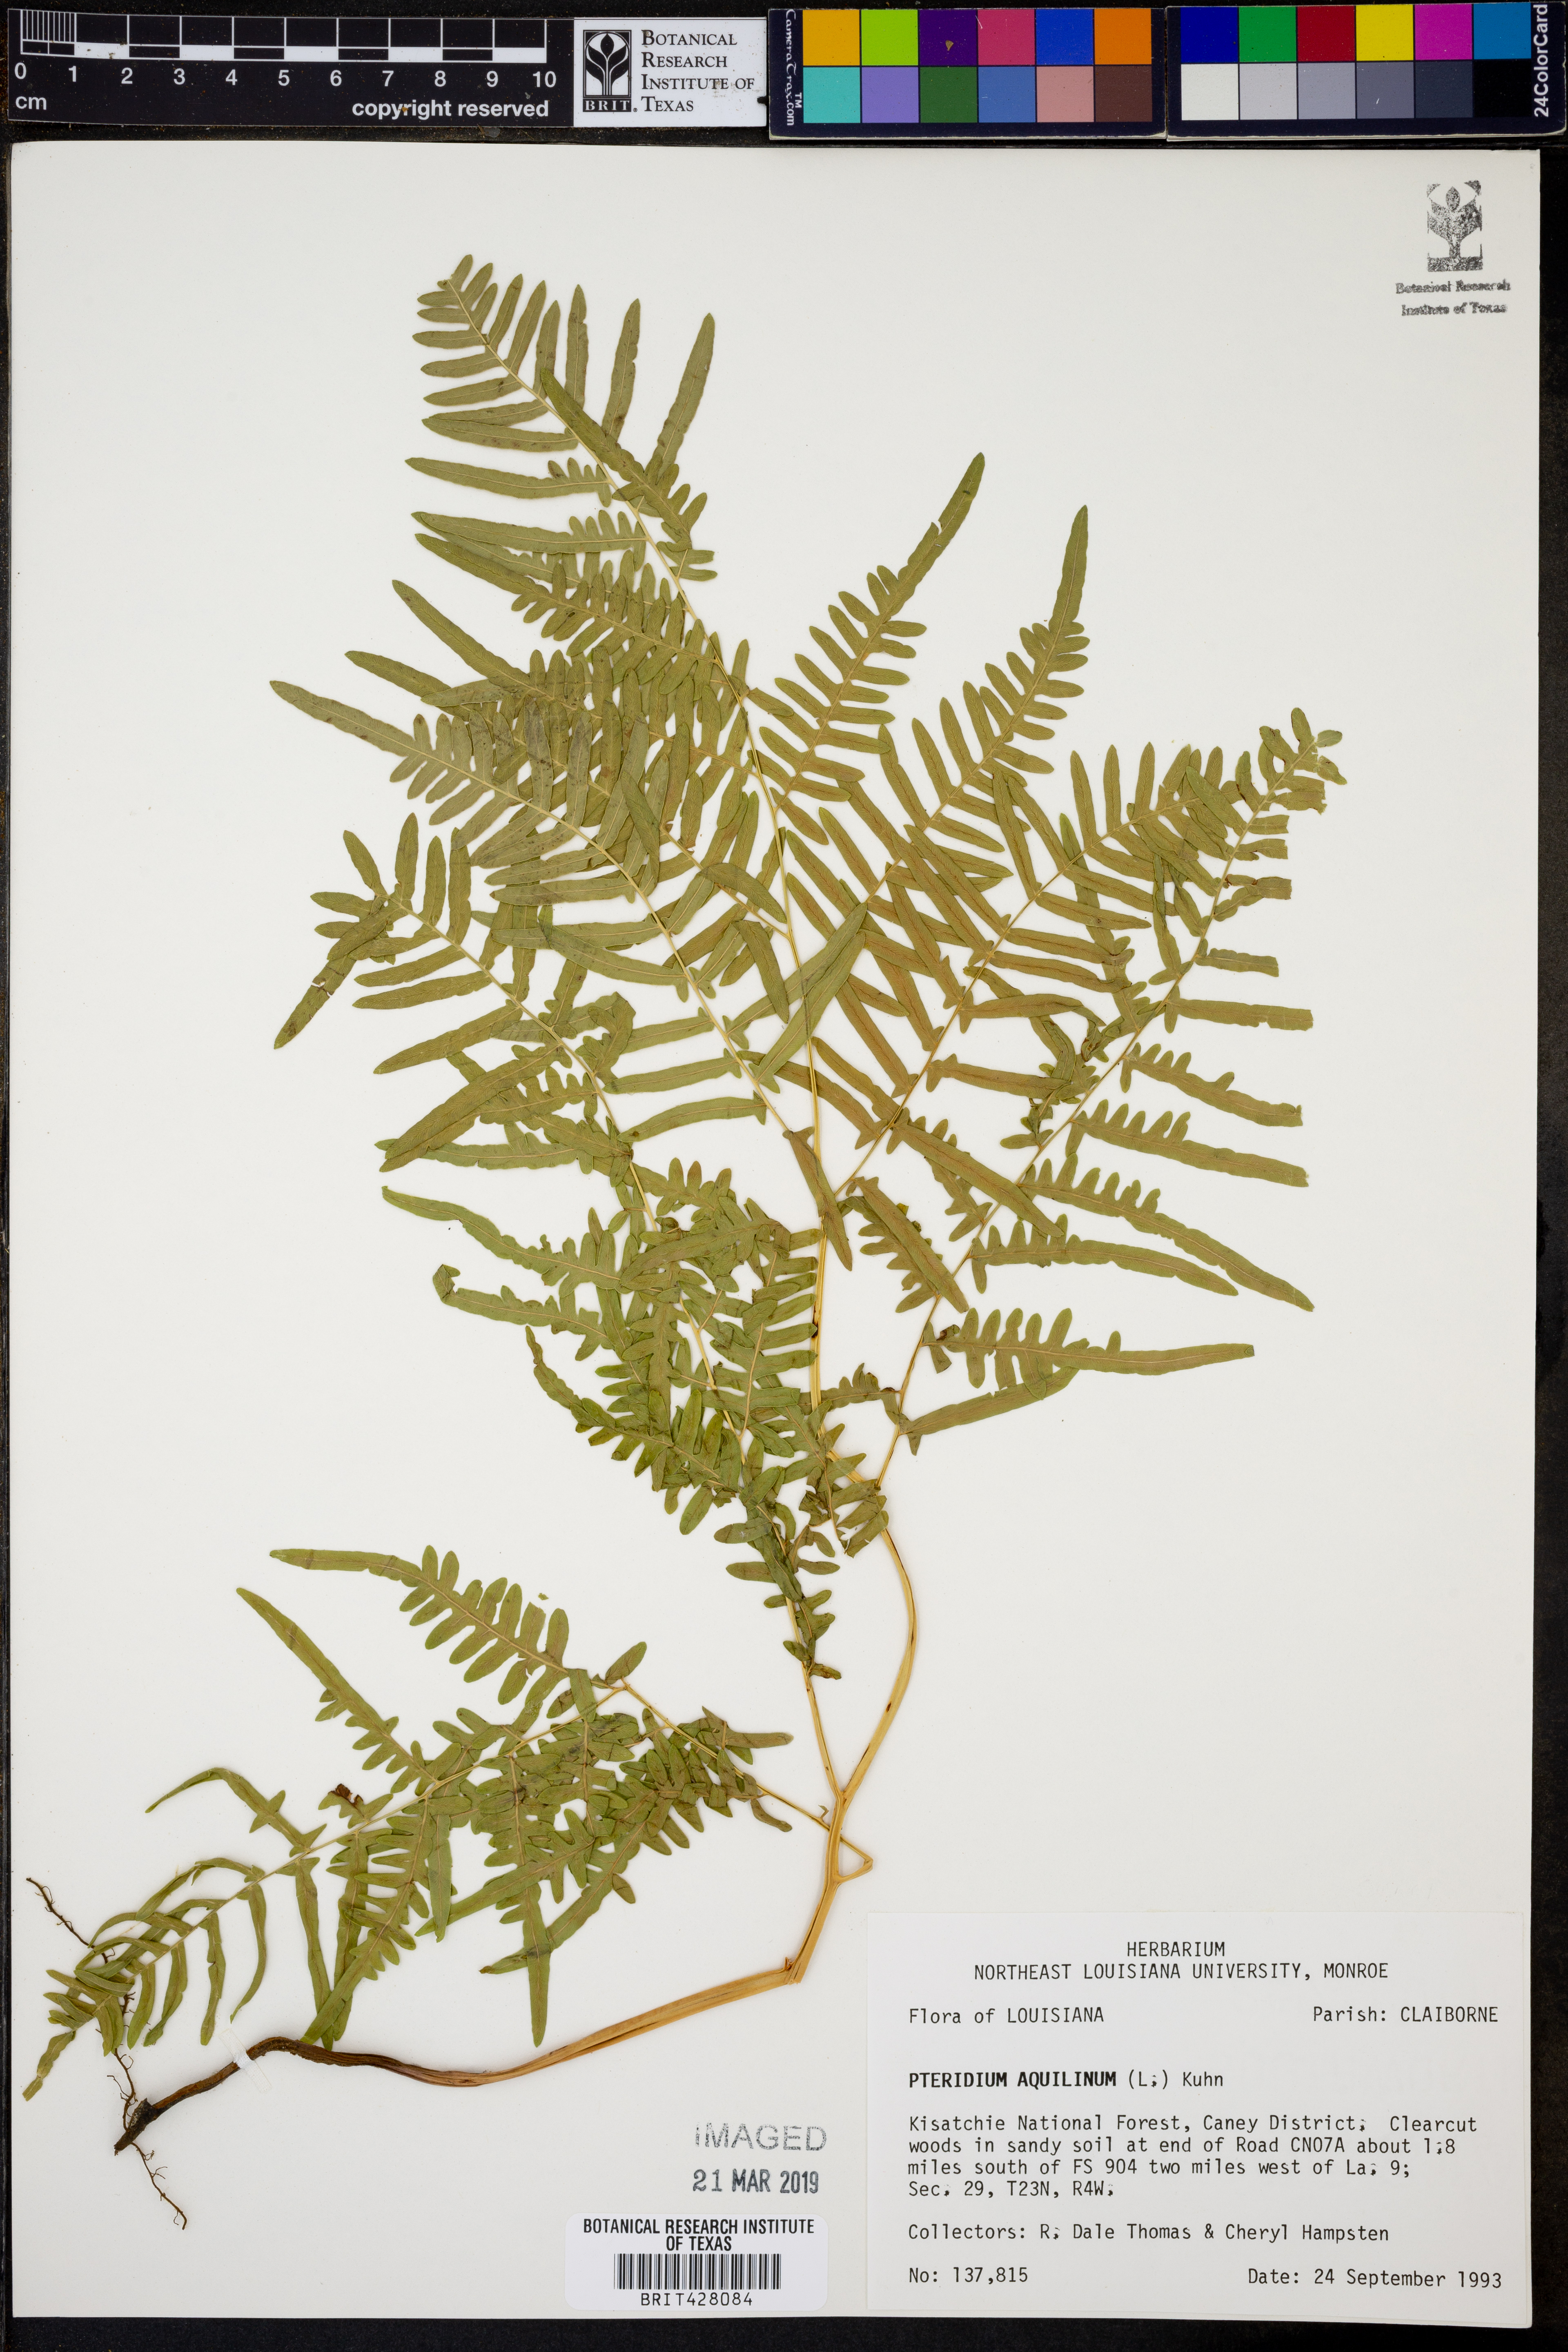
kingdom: Plantae
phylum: Tracheophyta
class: Polypodiopsida
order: Polypodiales
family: Dennstaedtiaceae
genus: Pteridium
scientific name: Pteridium aquilinum
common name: Bracken
